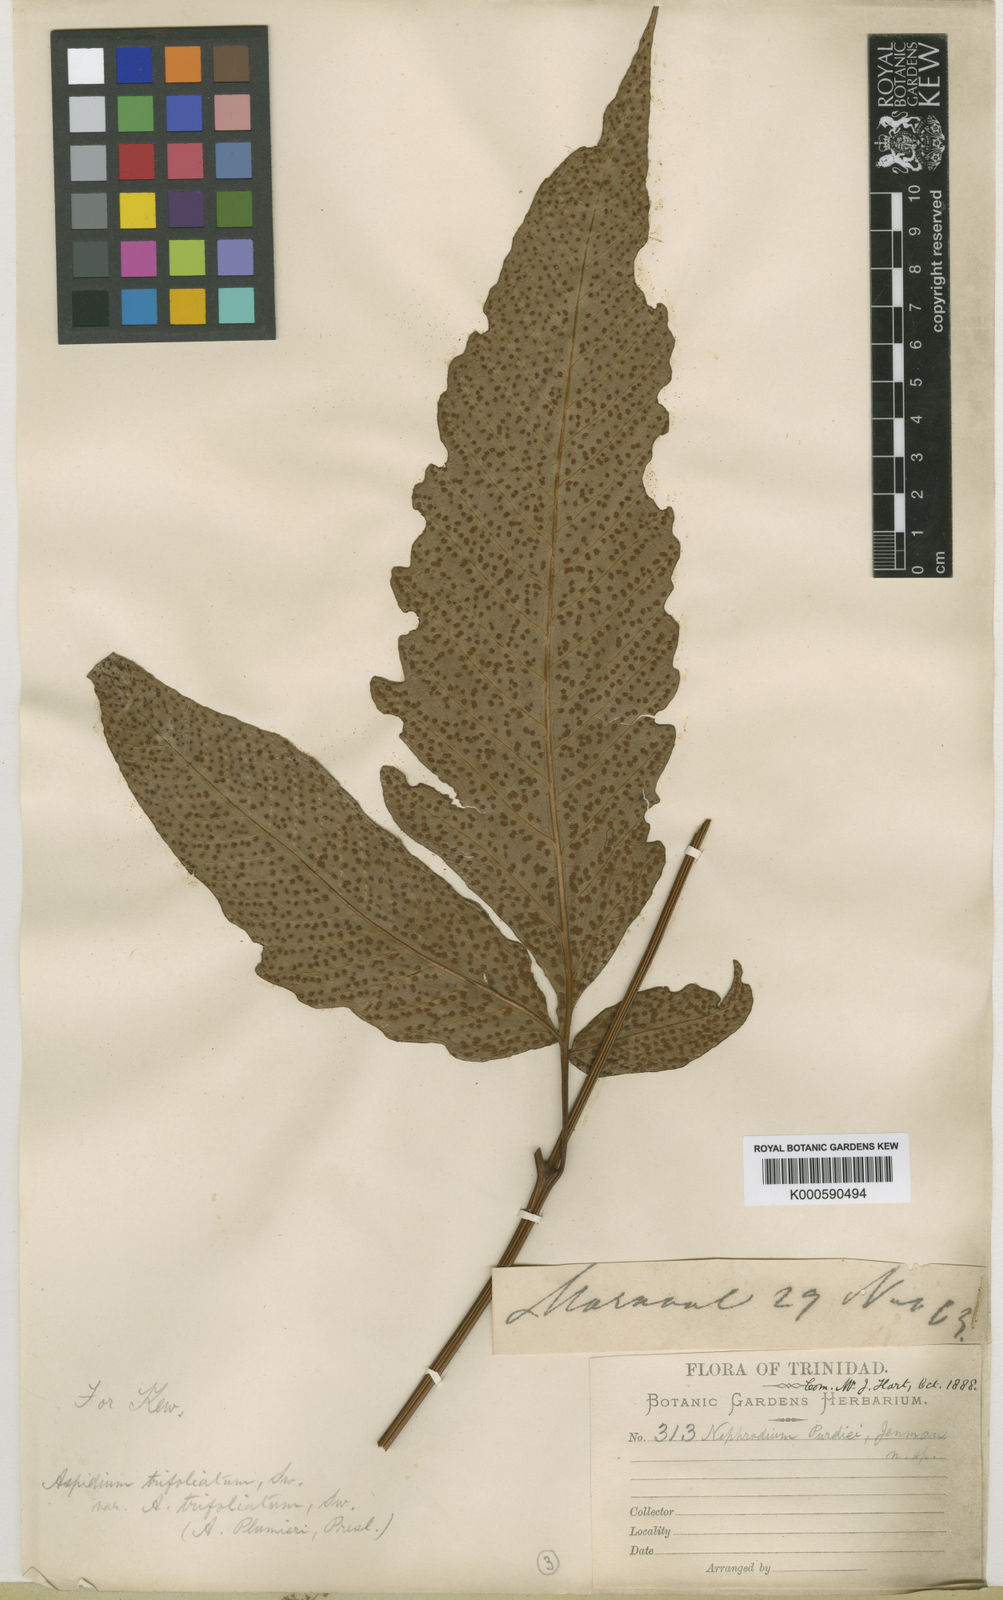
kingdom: Plantae
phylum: Tracheophyta
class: Polypodiopsida
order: Polypodiales
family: Tectariaceae
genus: Tectaria
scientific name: Tectaria trifoliata
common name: Threeleaf halberd fern
